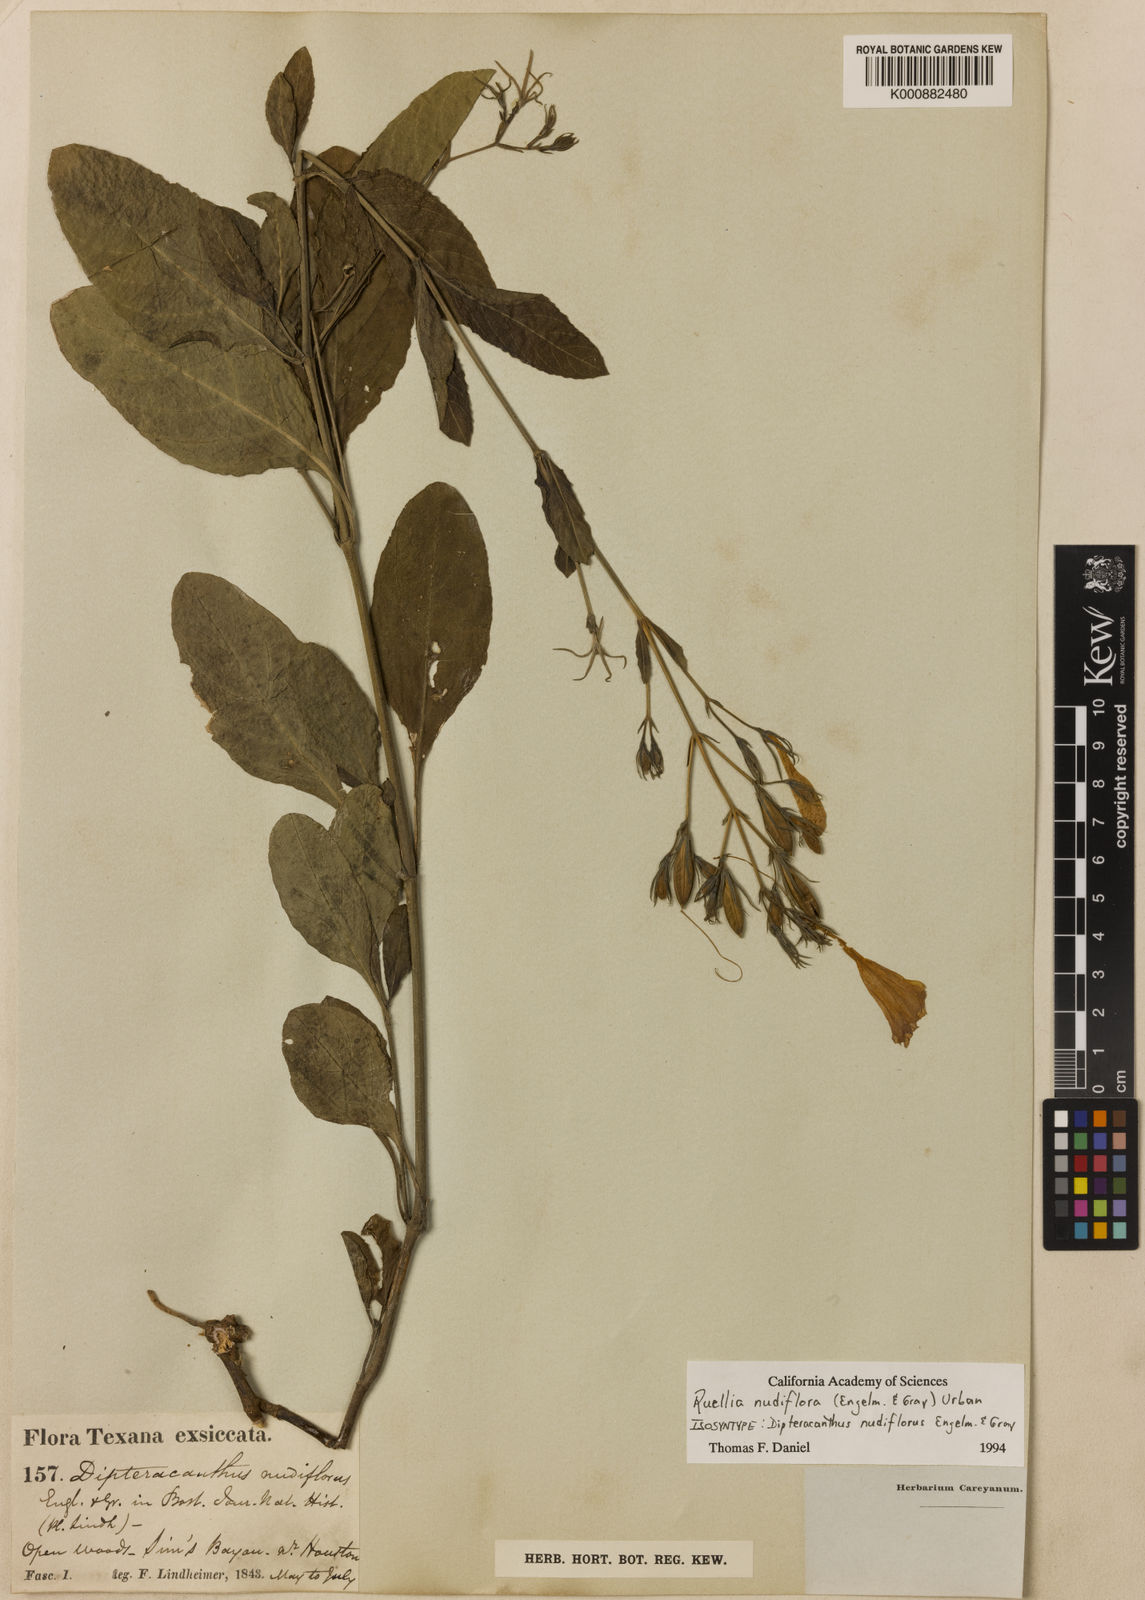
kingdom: Plantae
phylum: Tracheophyta
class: Magnoliopsida
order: Lamiales
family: Acanthaceae
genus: Ruellia
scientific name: Ruellia ciliatiflora
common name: Hairyflower wild petunia
